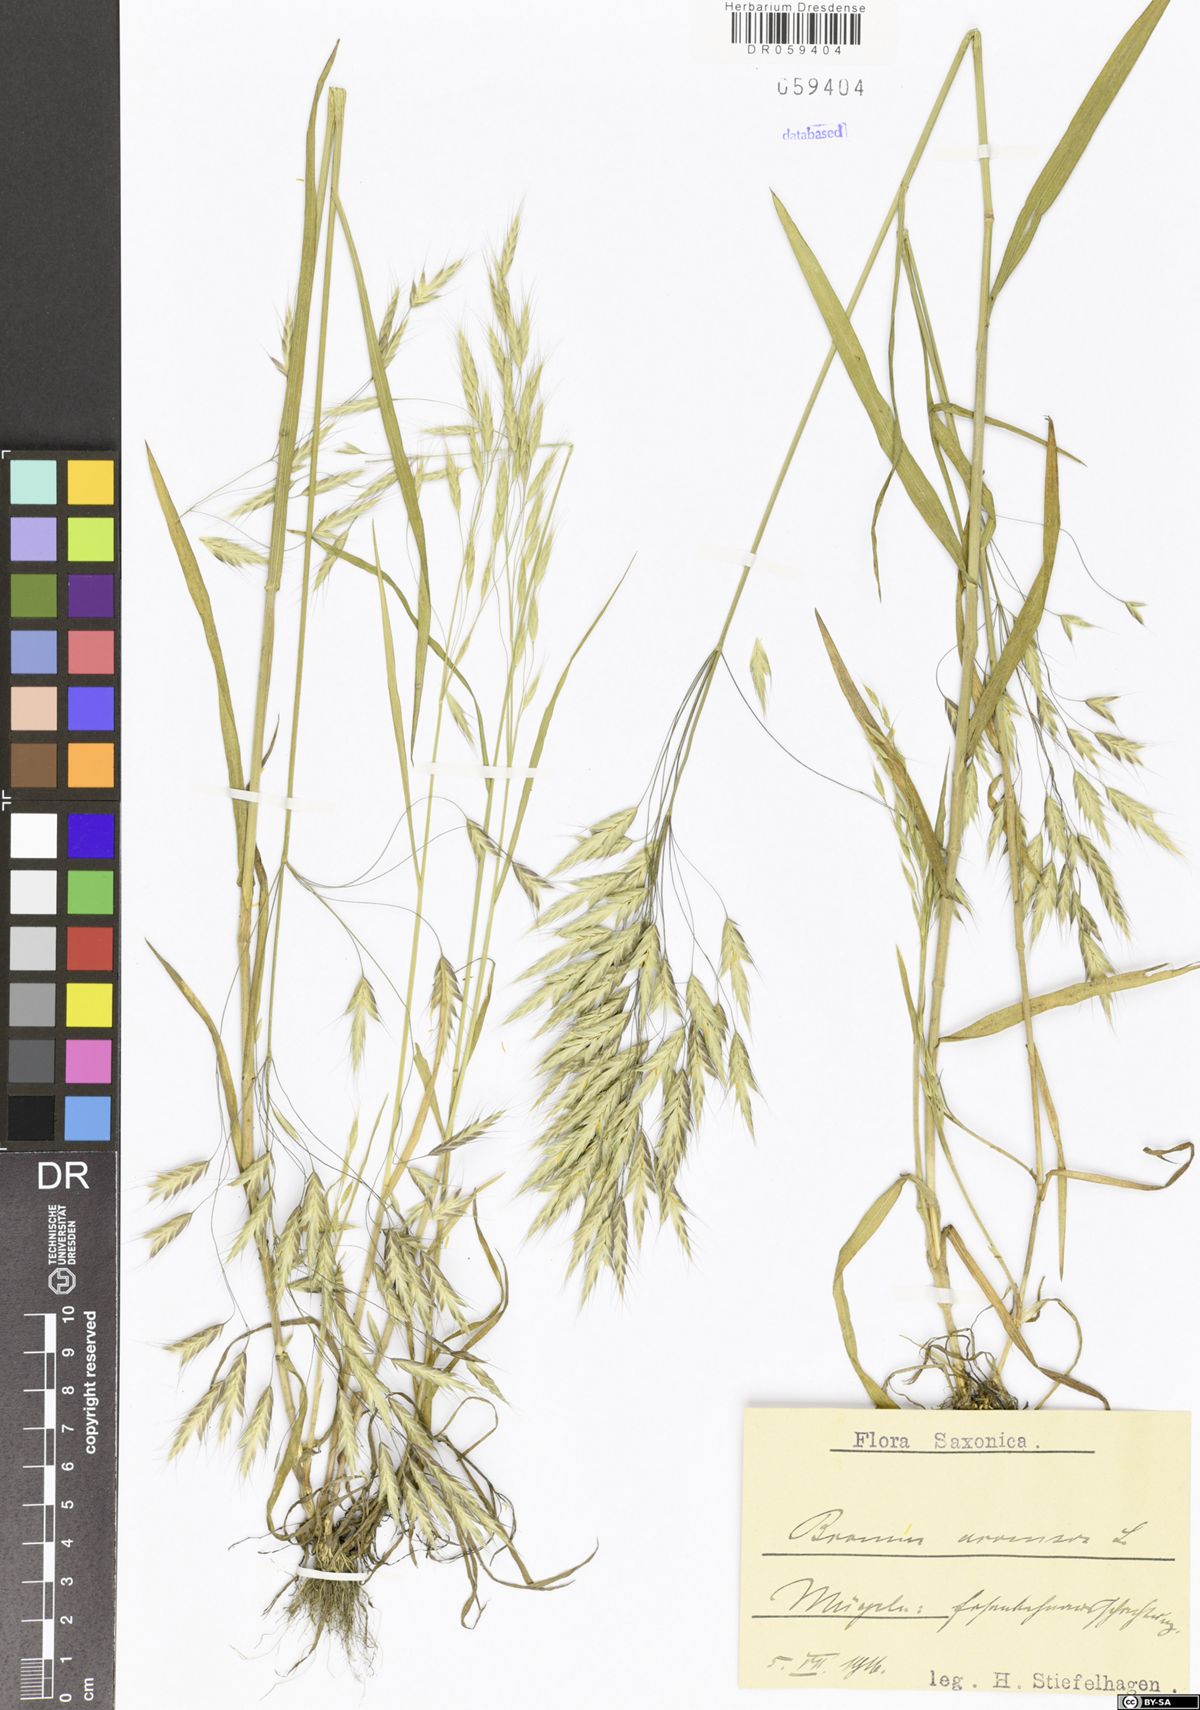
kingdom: Plantae
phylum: Tracheophyta
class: Liliopsida
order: Poales
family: Poaceae
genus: Bromus
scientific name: Bromus arvensis
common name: Field brome
